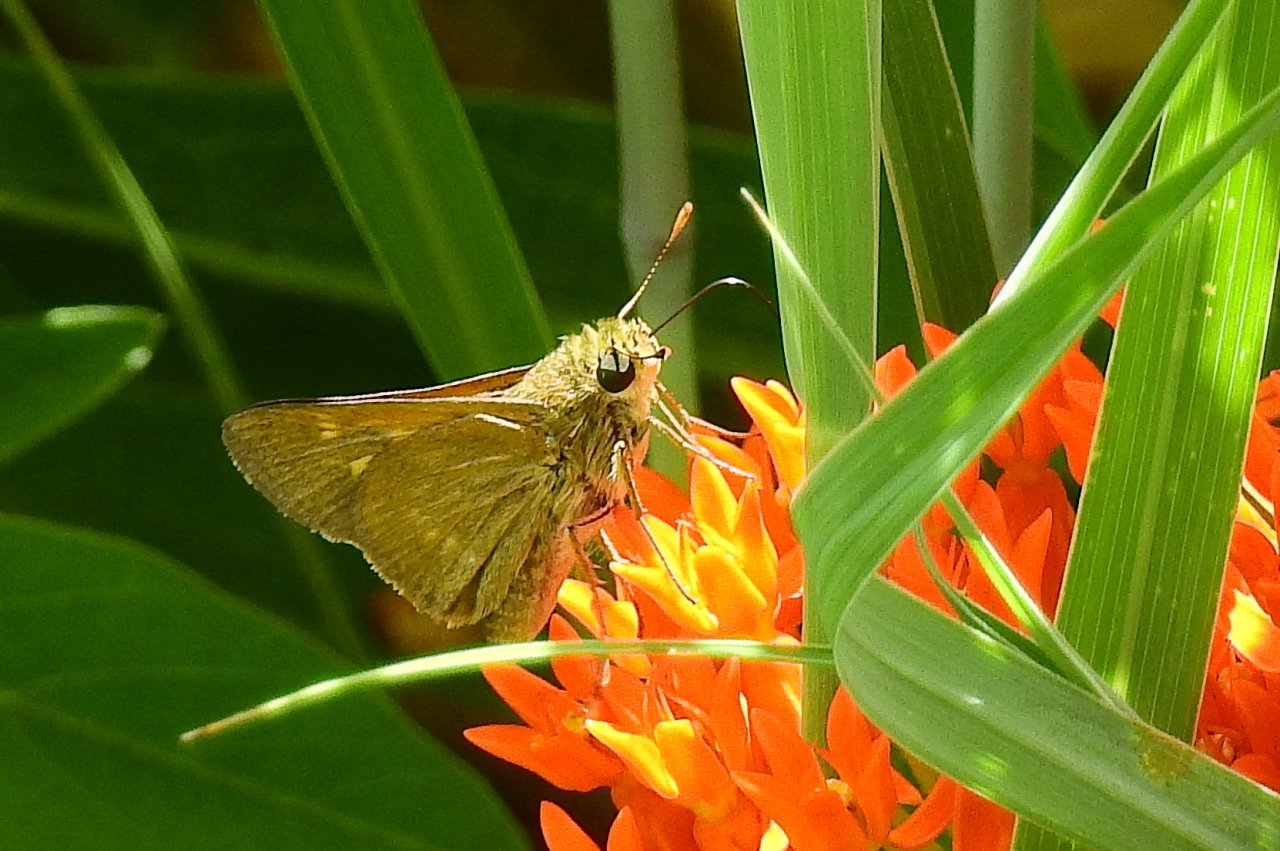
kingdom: Animalia
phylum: Arthropoda
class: Insecta
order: Lepidoptera
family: Hesperiidae
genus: Polites
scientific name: Polites
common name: Crossline Skipper
